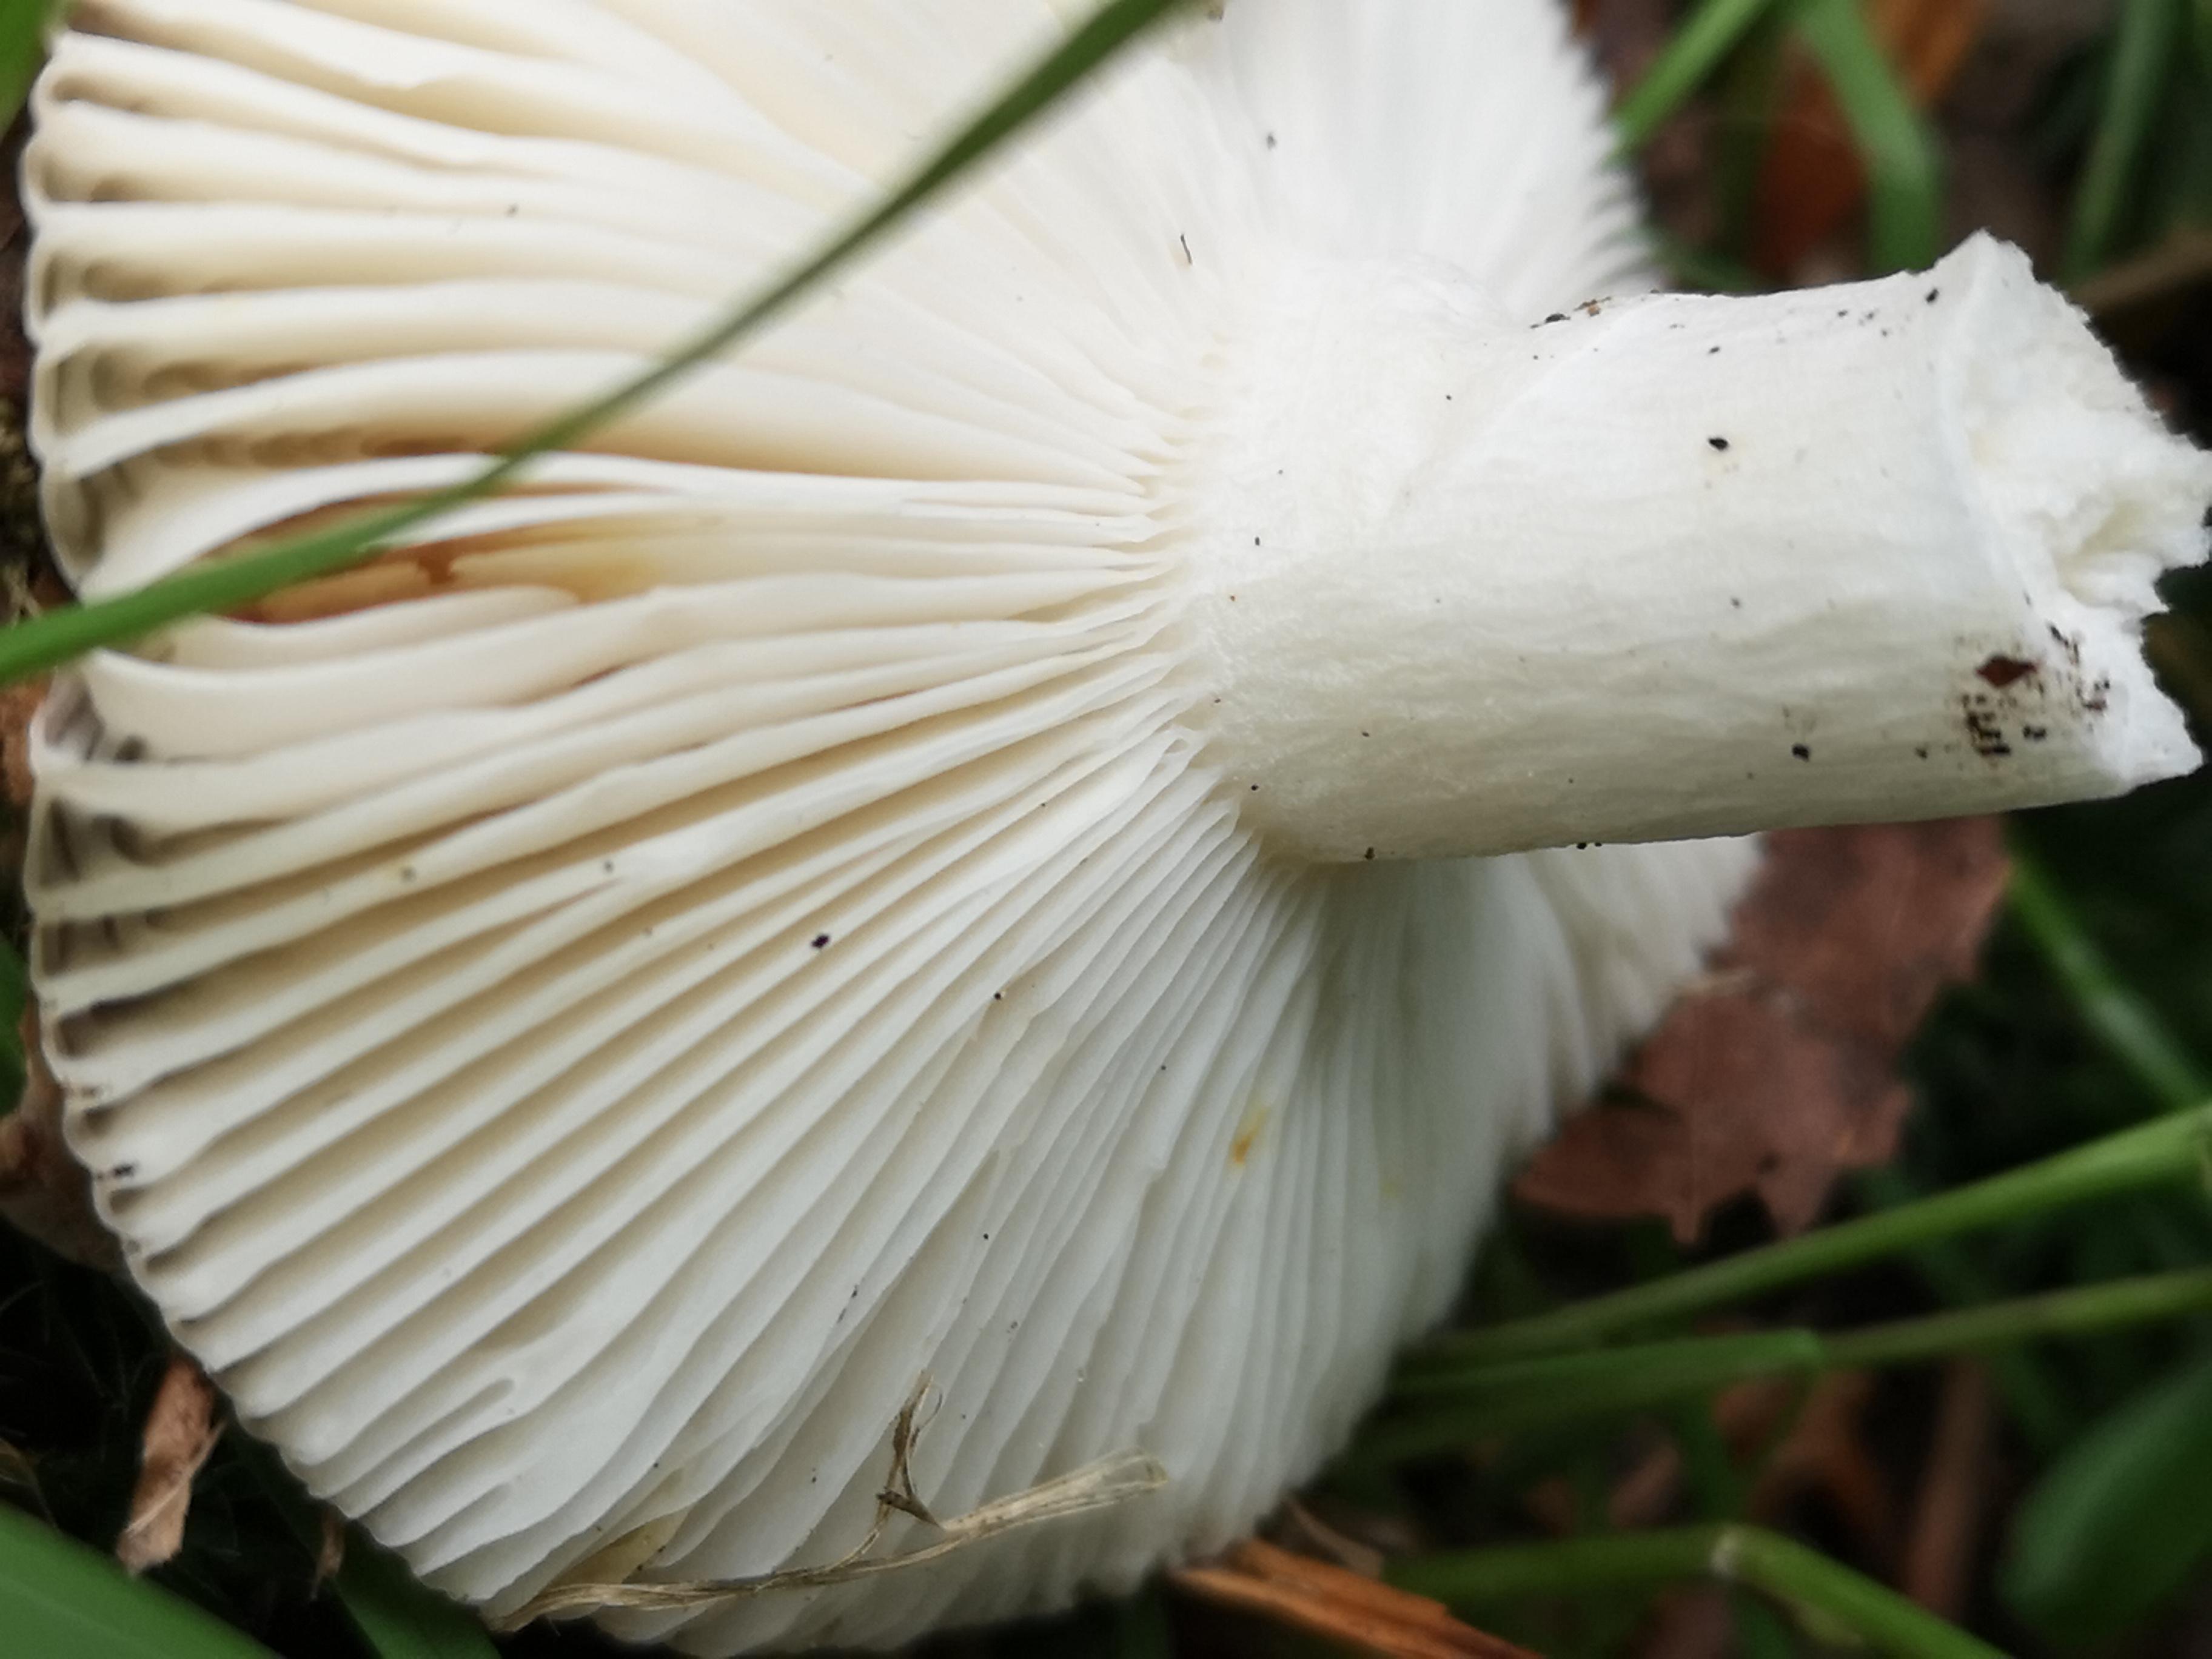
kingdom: Fungi
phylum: Basidiomycota
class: Agaricomycetes
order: Russulales
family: Russulaceae
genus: Russula
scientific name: Russula
